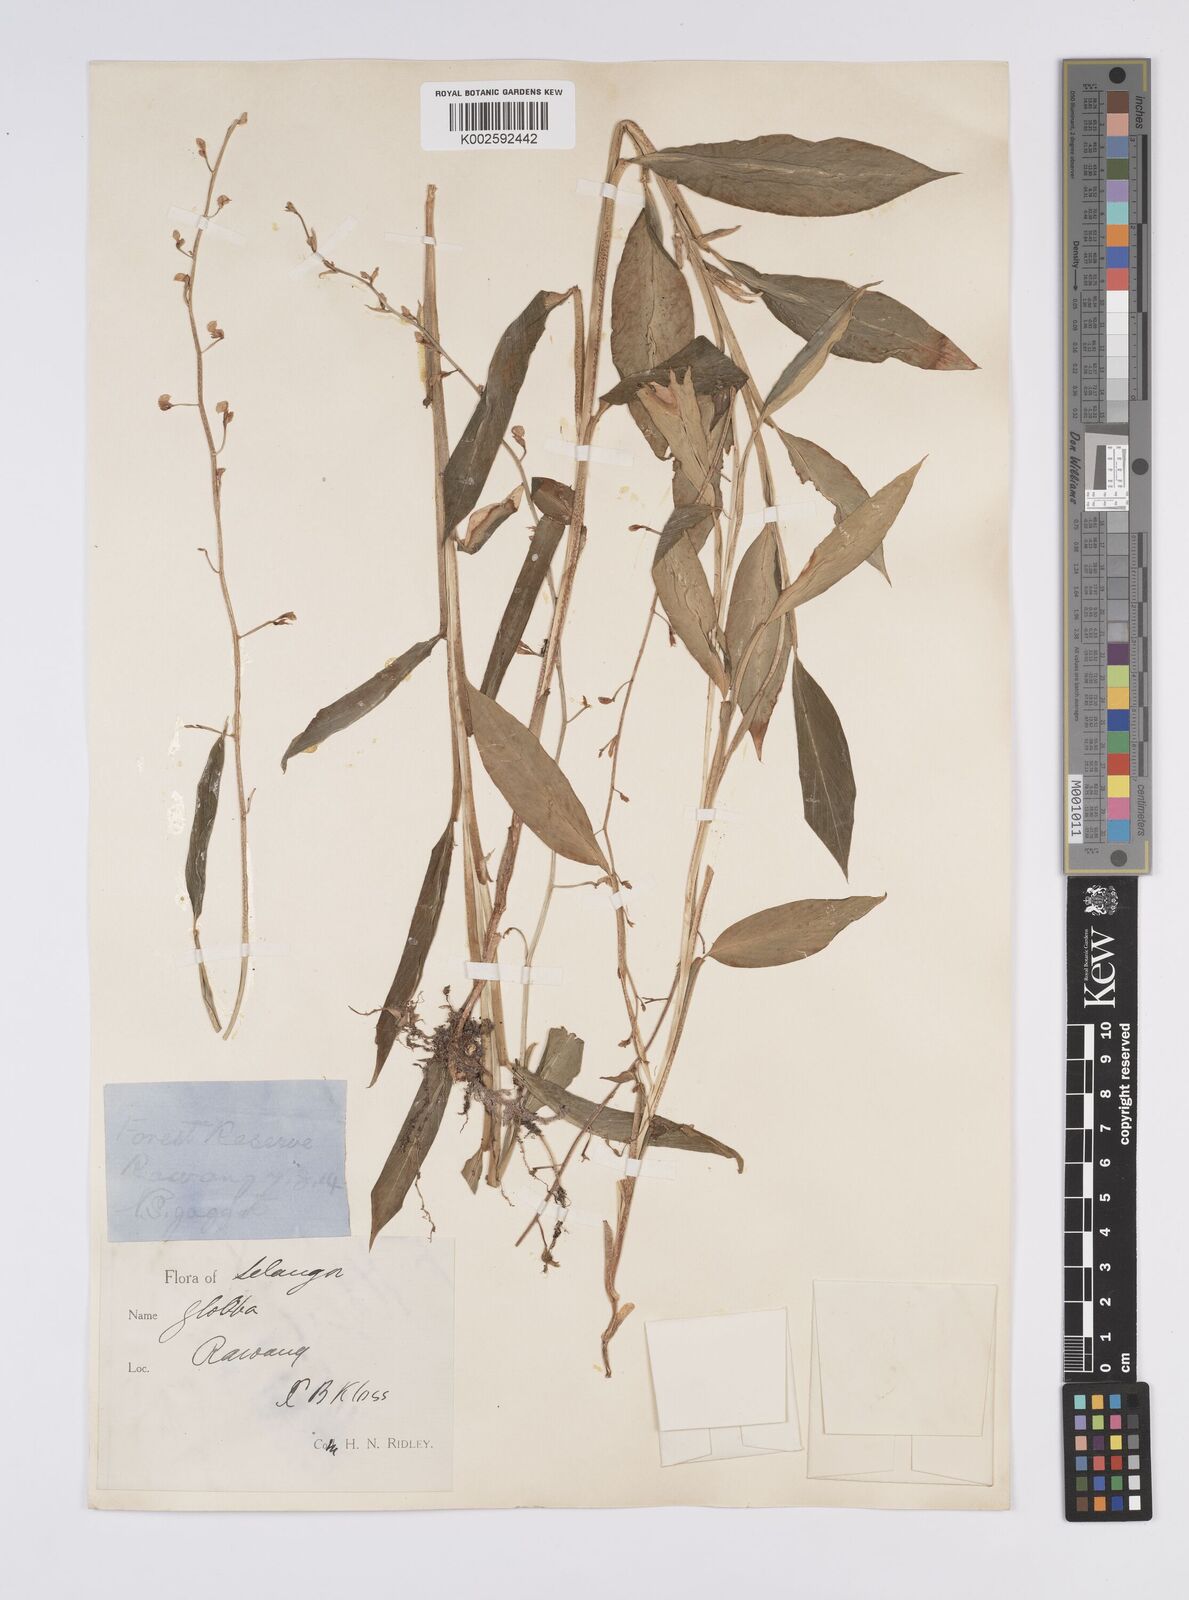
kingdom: Plantae
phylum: Tracheophyta
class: Liliopsida
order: Zingiberales
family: Zingiberaceae
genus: Globba
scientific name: Globba pendula
